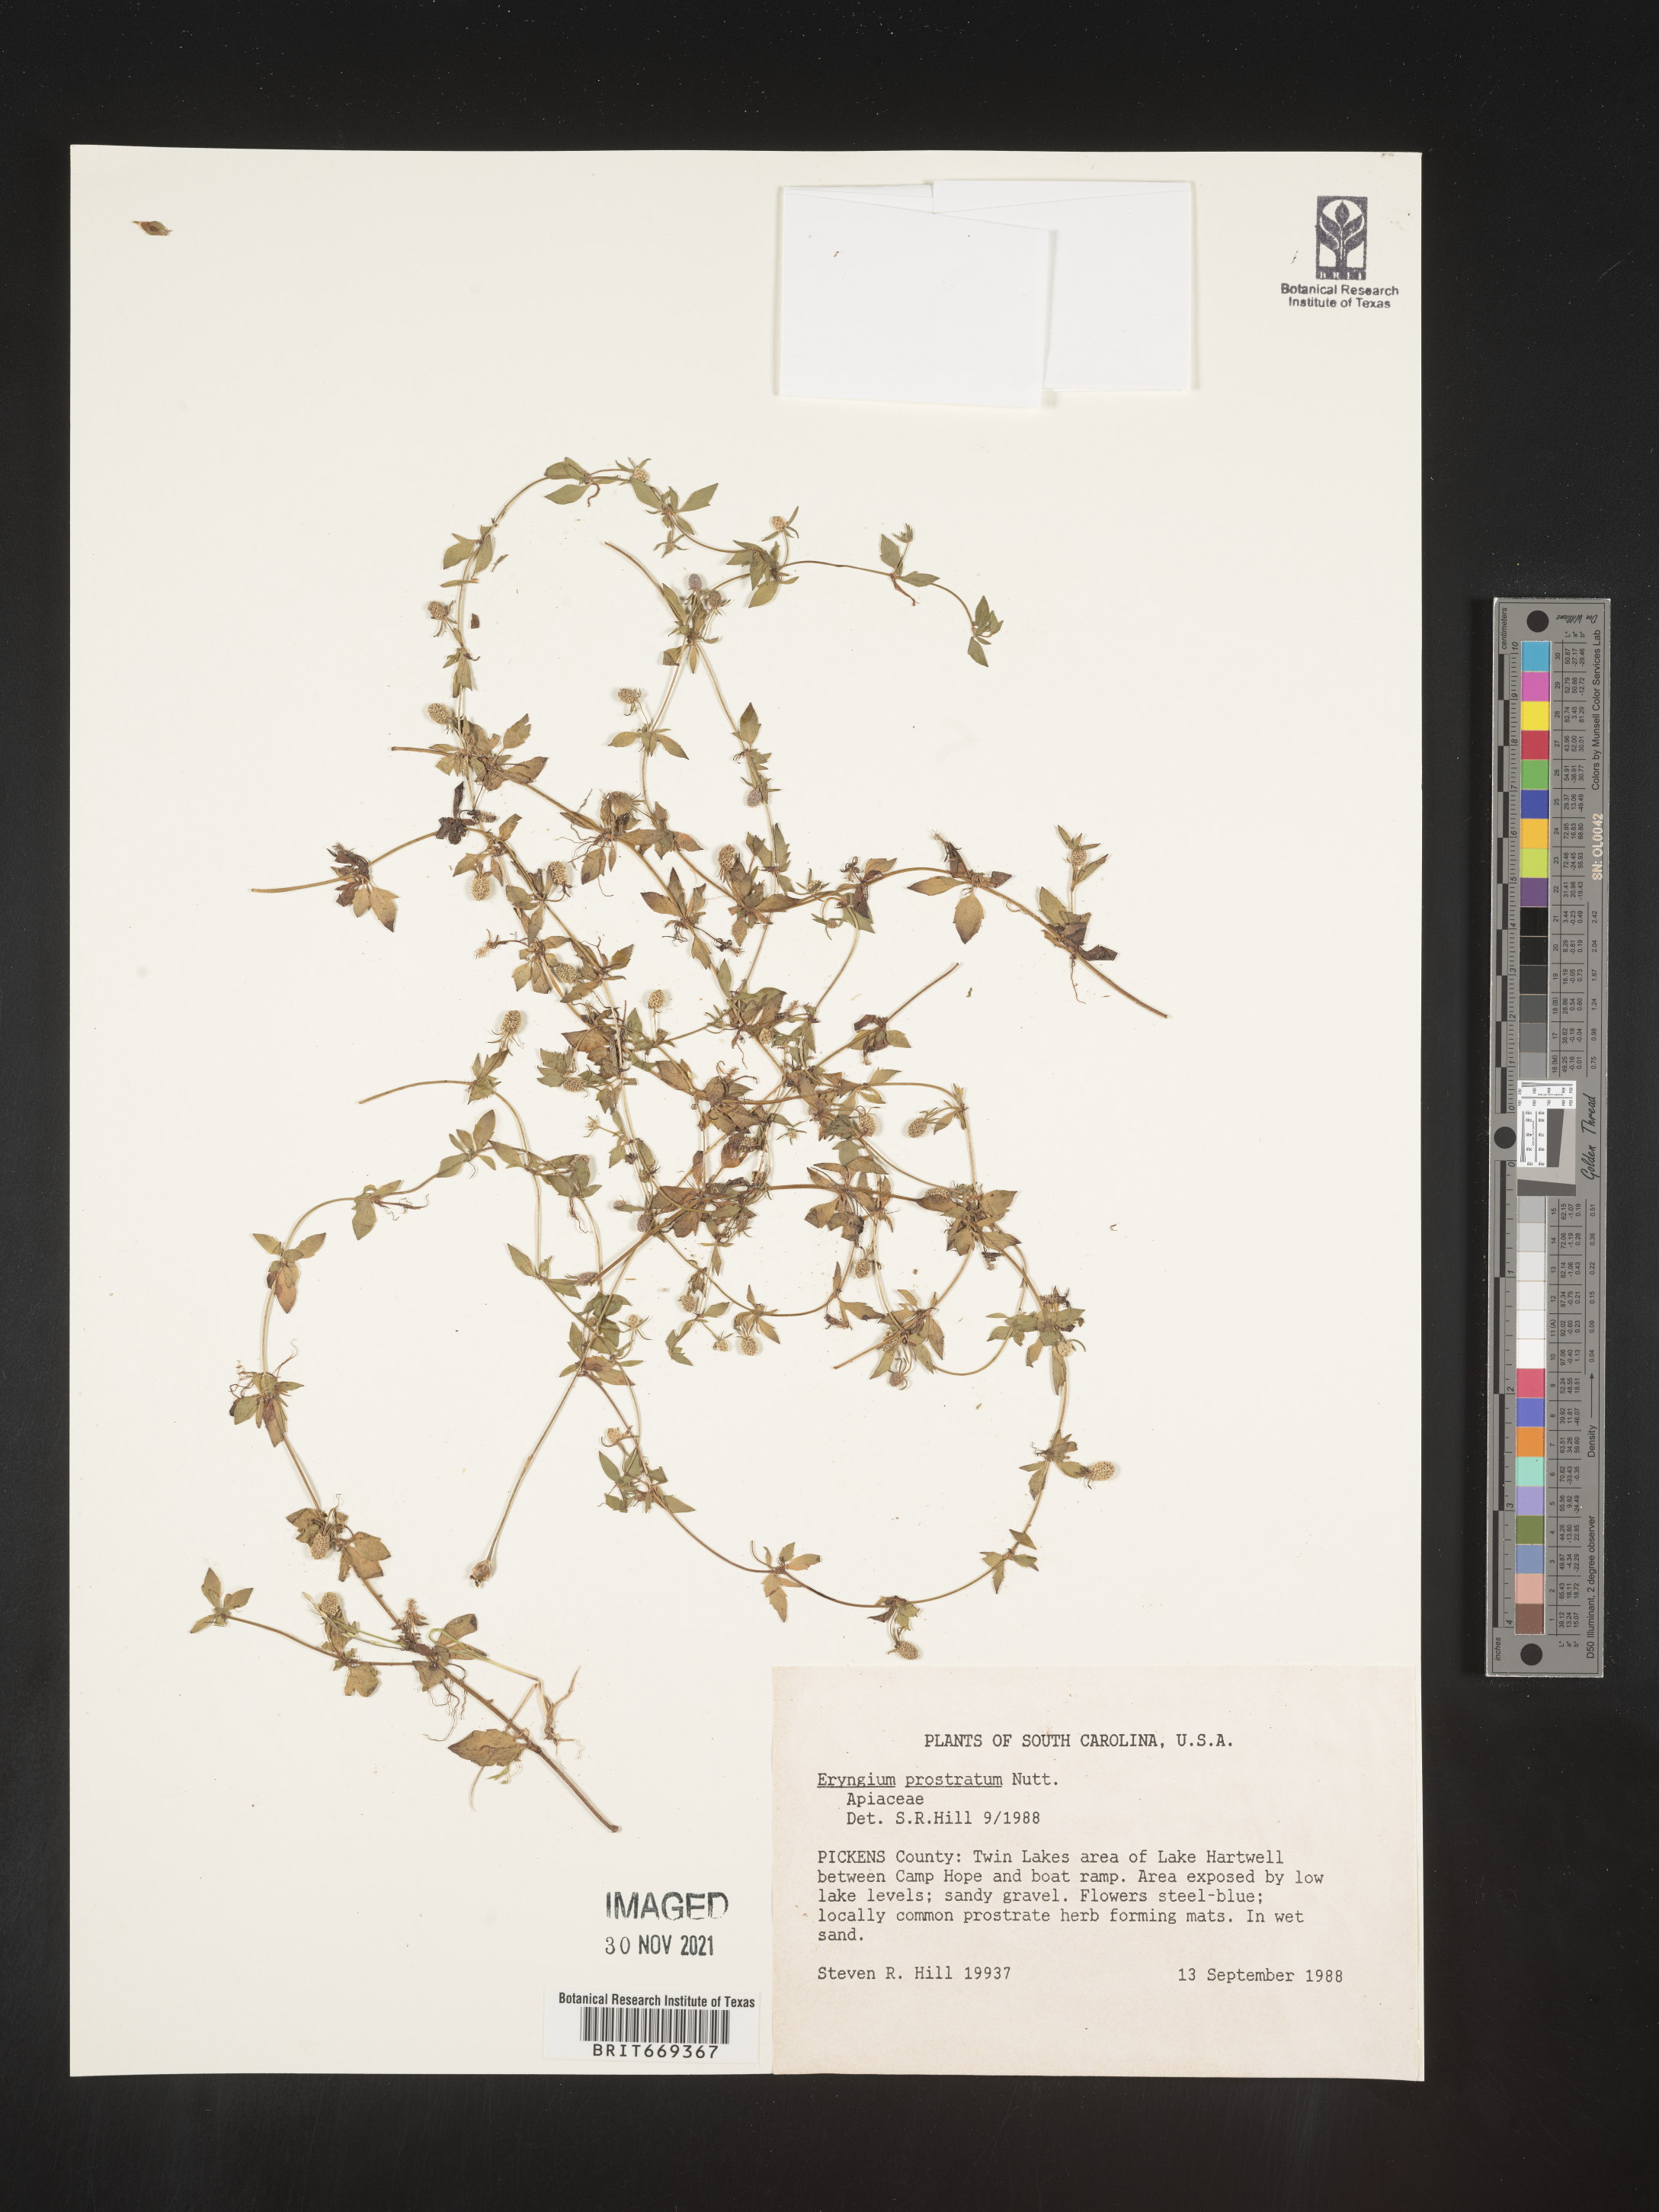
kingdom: Plantae
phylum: Tracheophyta
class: Magnoliopsida
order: Apiales
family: Apiaceae
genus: Eryngium
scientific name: Eryngium prostratum
